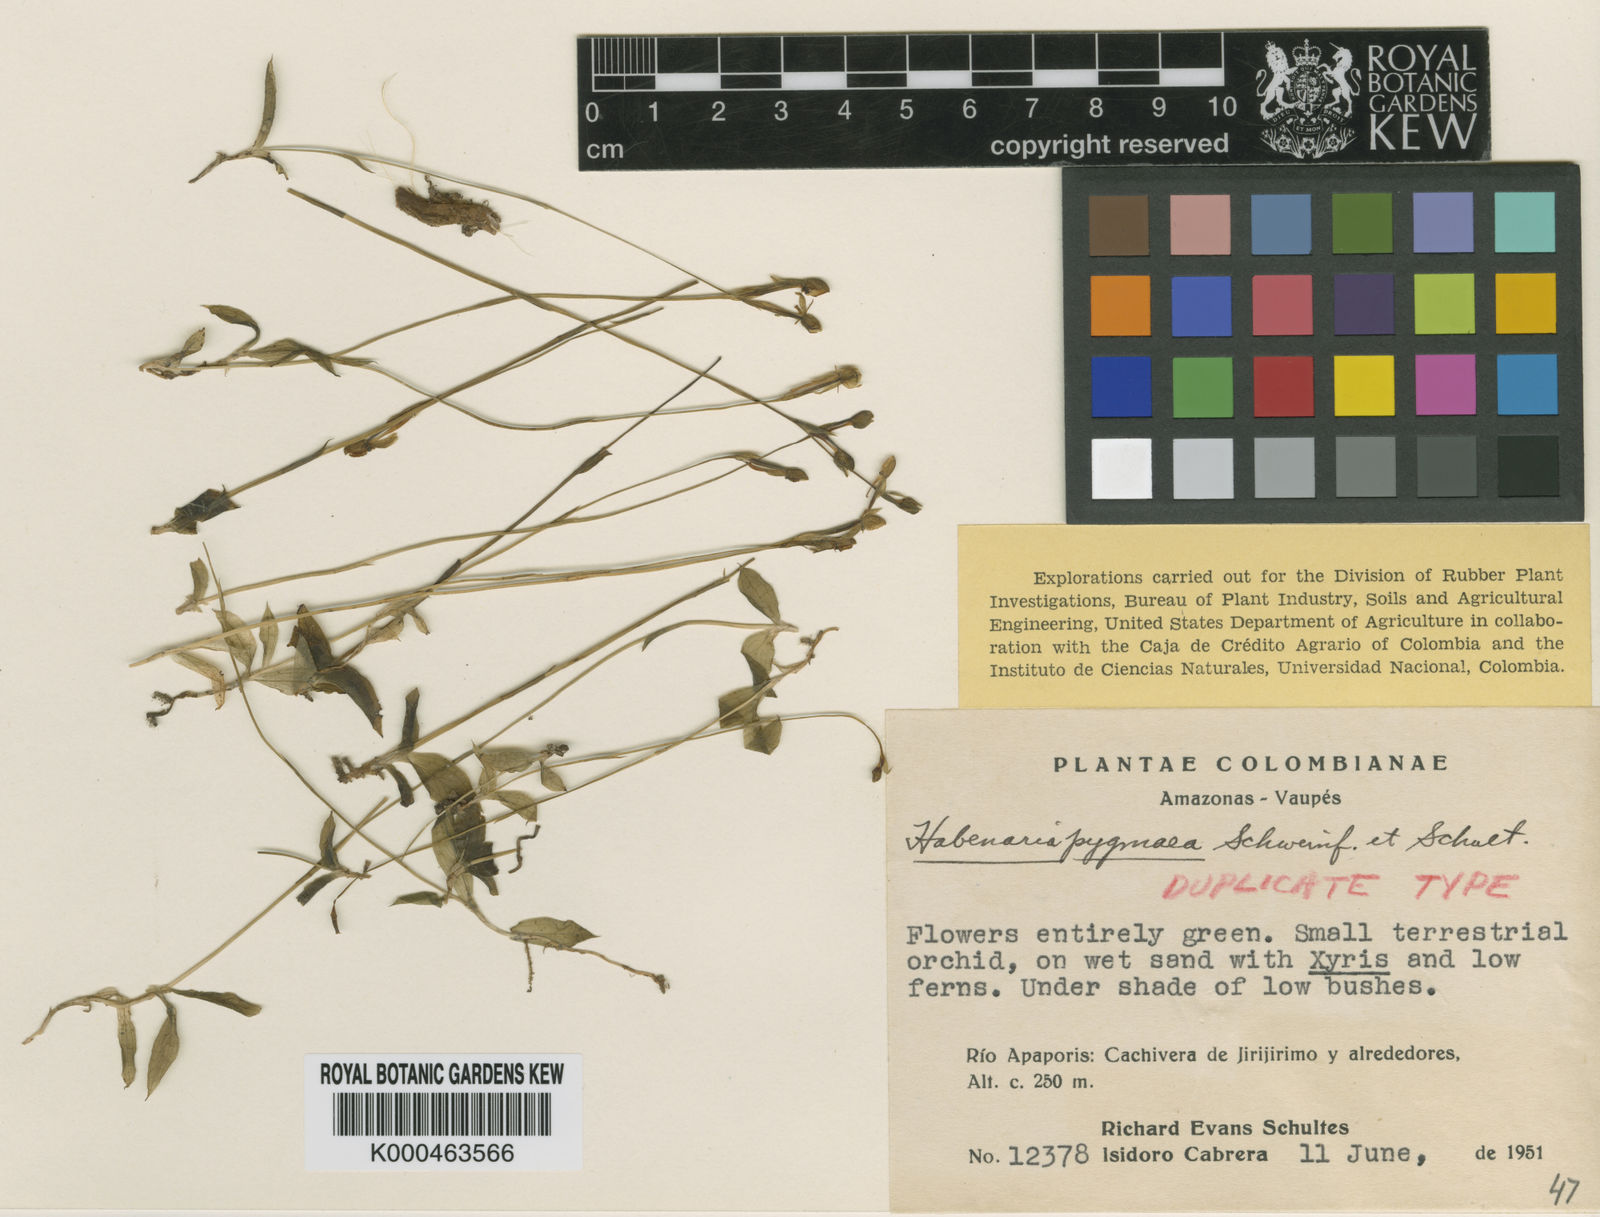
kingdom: Plantae
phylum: Tracheophyta
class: Liliopsida
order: Asparagales
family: Orchidaceae
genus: Habenaria
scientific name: Habenaria pygmaea
